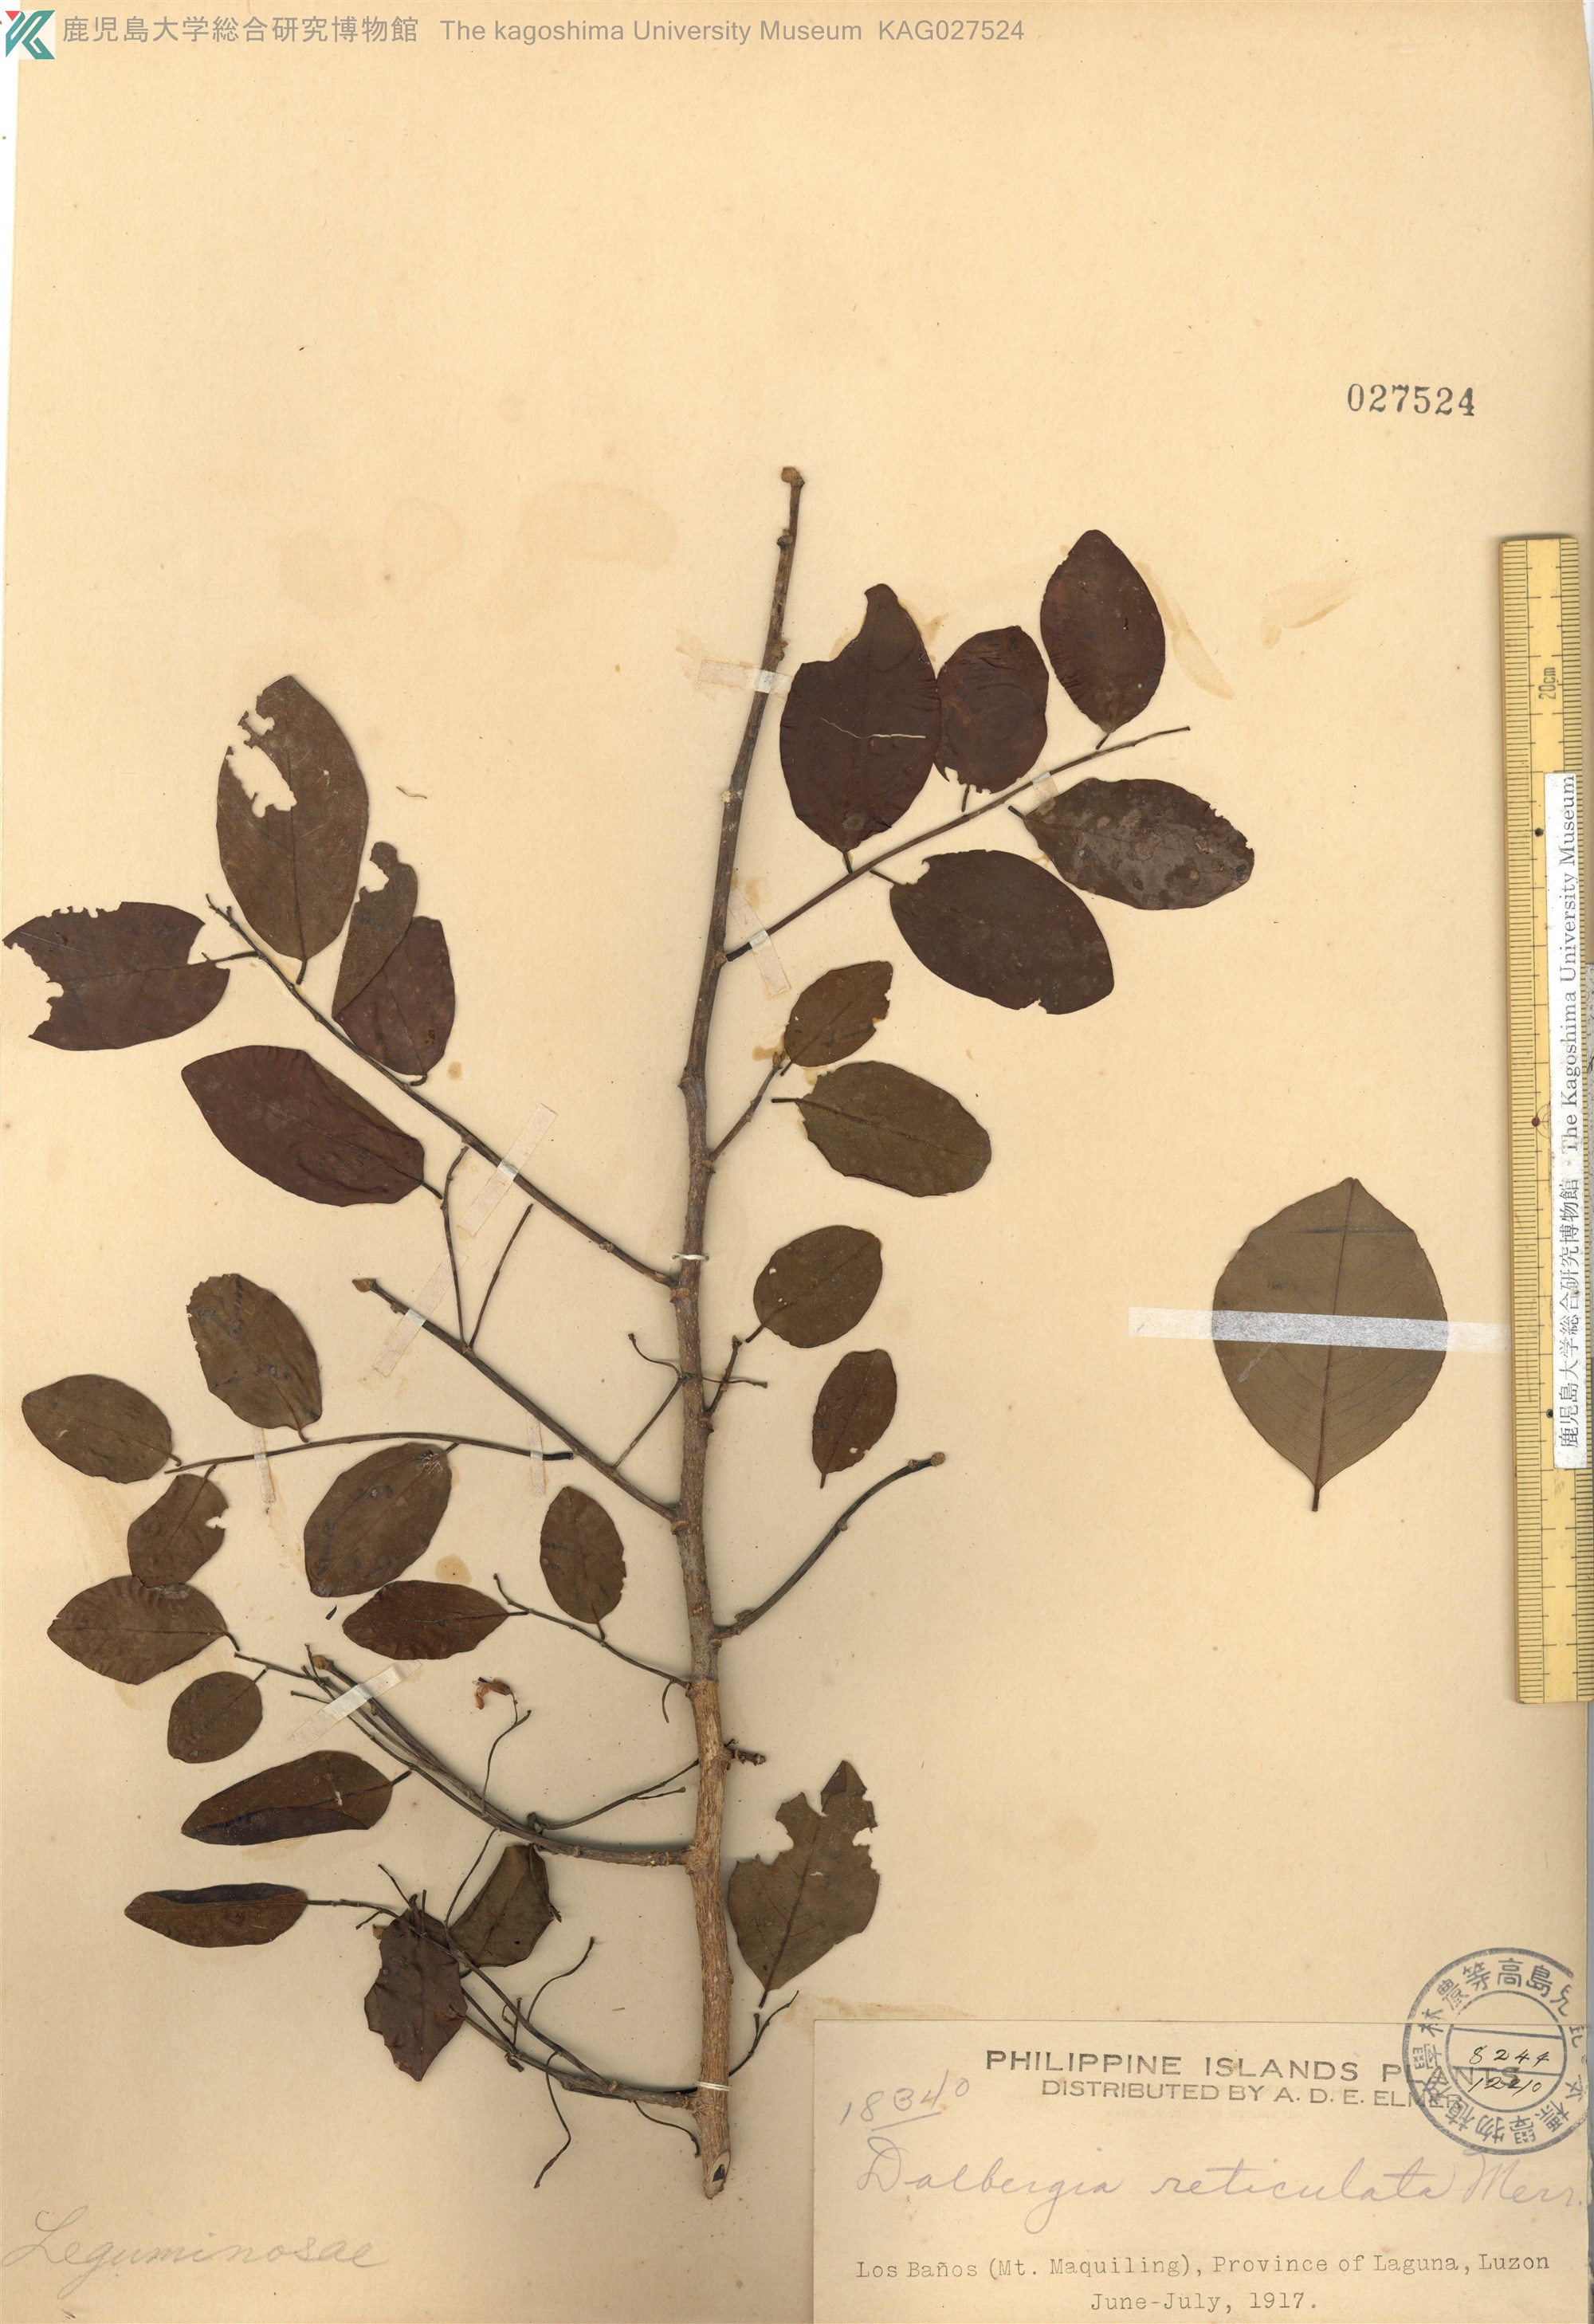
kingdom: Plantae
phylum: Tracheophyta
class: Magnoliopsida
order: Fabales
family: Fabaceae
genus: Dalbergia
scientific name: Dalbergia reticulata
